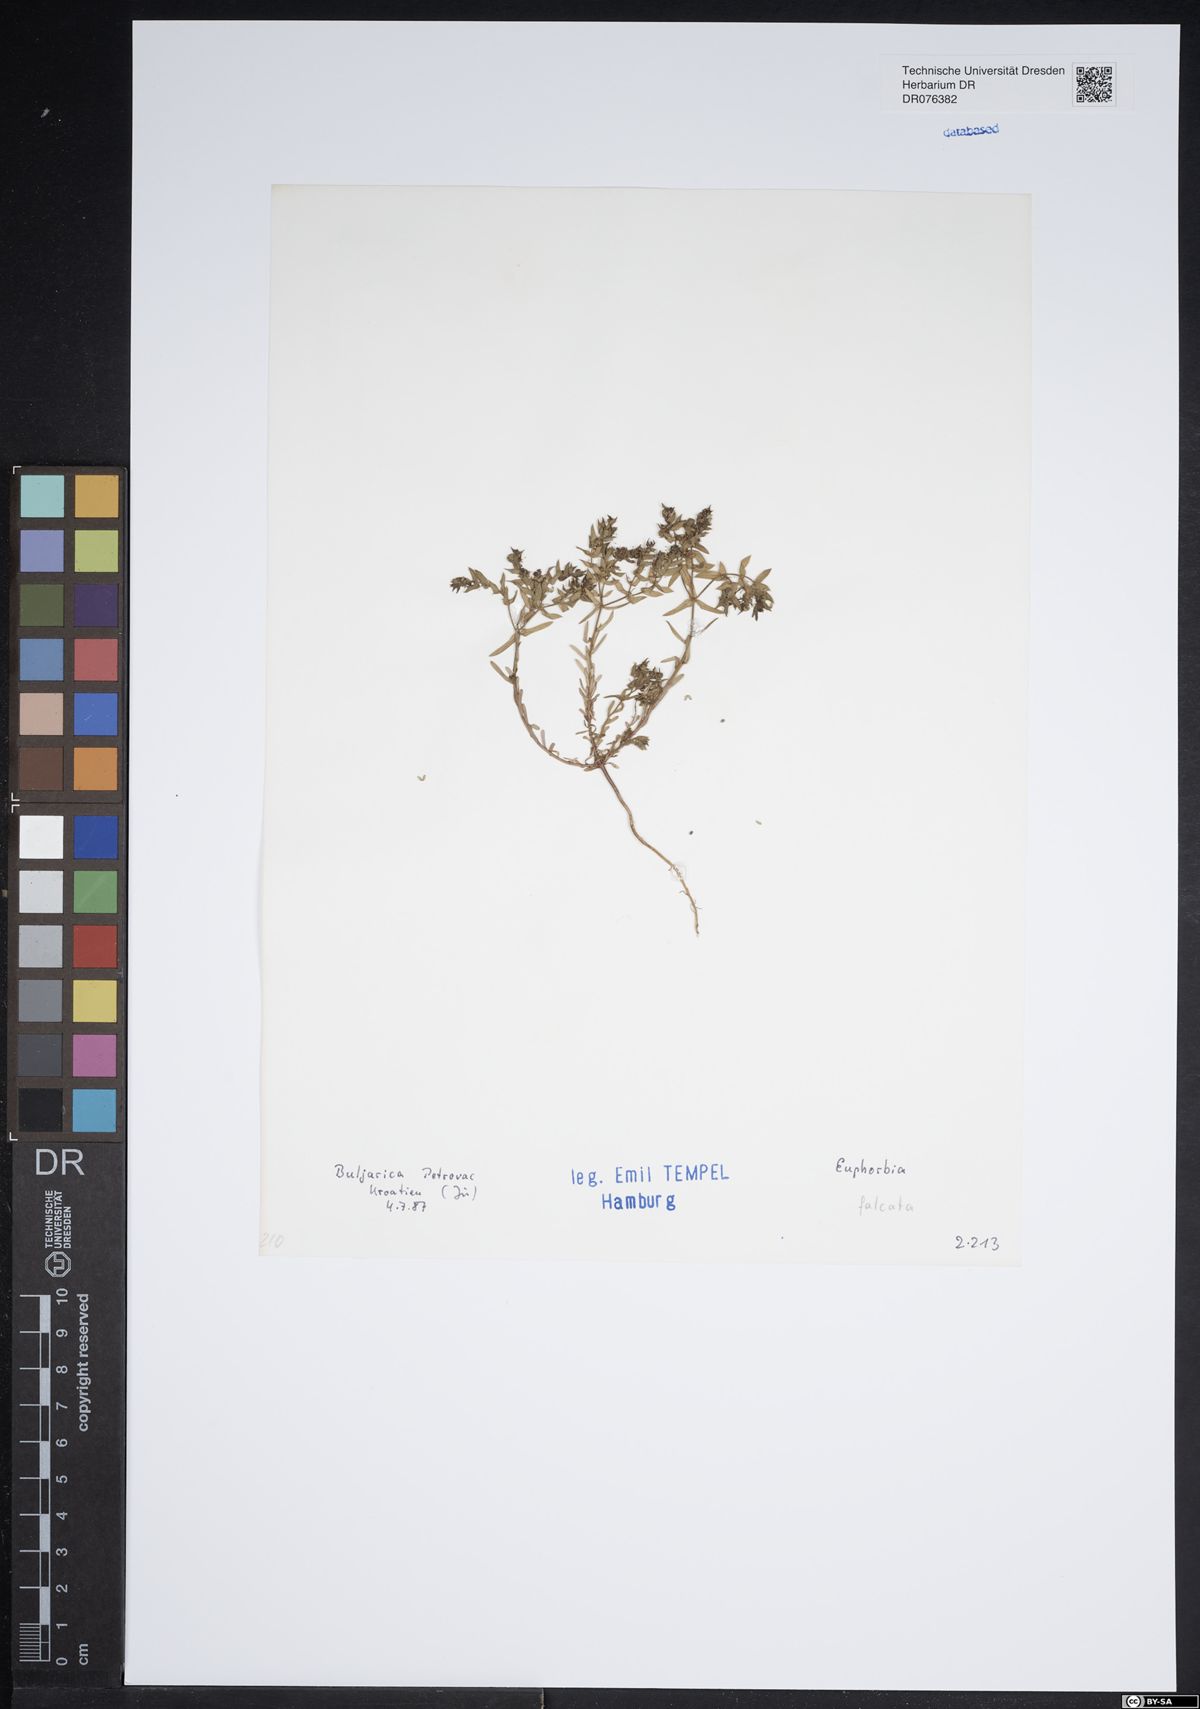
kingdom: Plantae
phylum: Tracheophyta
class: Magnoliopsida
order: Malpighiales
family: Euphorbiaceae
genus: Euphorbia
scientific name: Euphorbia falcata
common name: Sickle spurge
